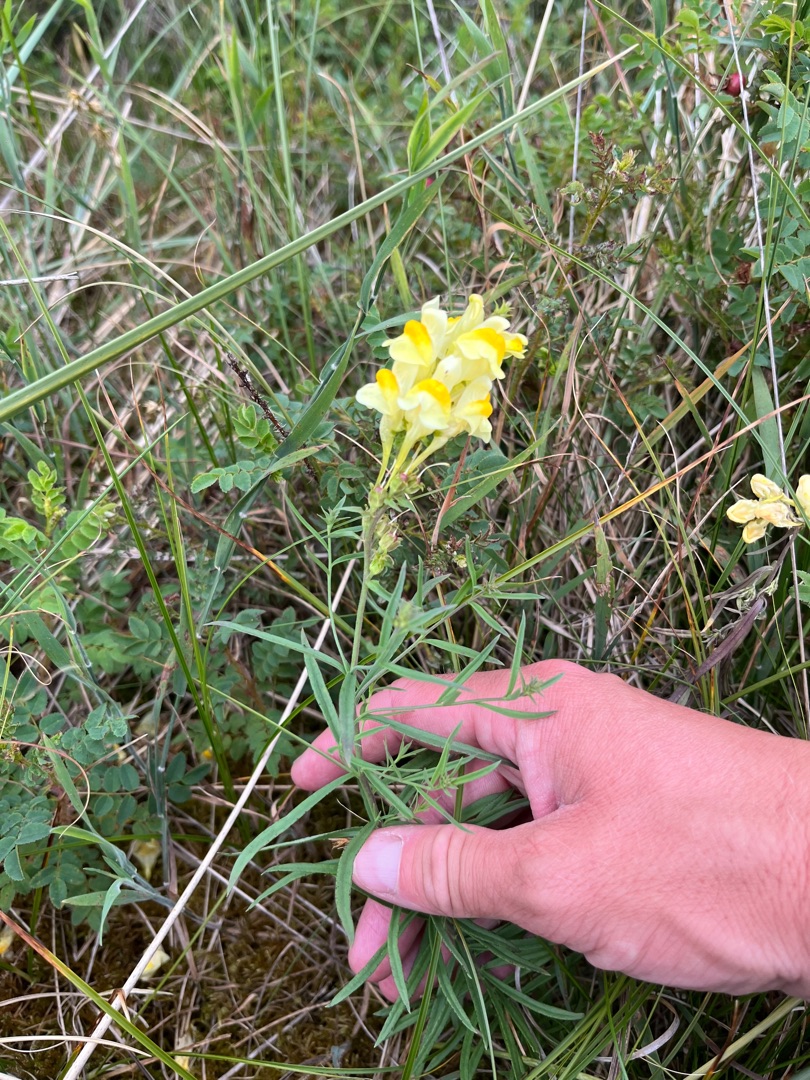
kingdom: Plantae
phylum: Tracheophyta
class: Magnoliopsida
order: Lamiales
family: Plantaginaceae
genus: Linaria
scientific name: Linaria vulgaris
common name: Almindelig torskemund
